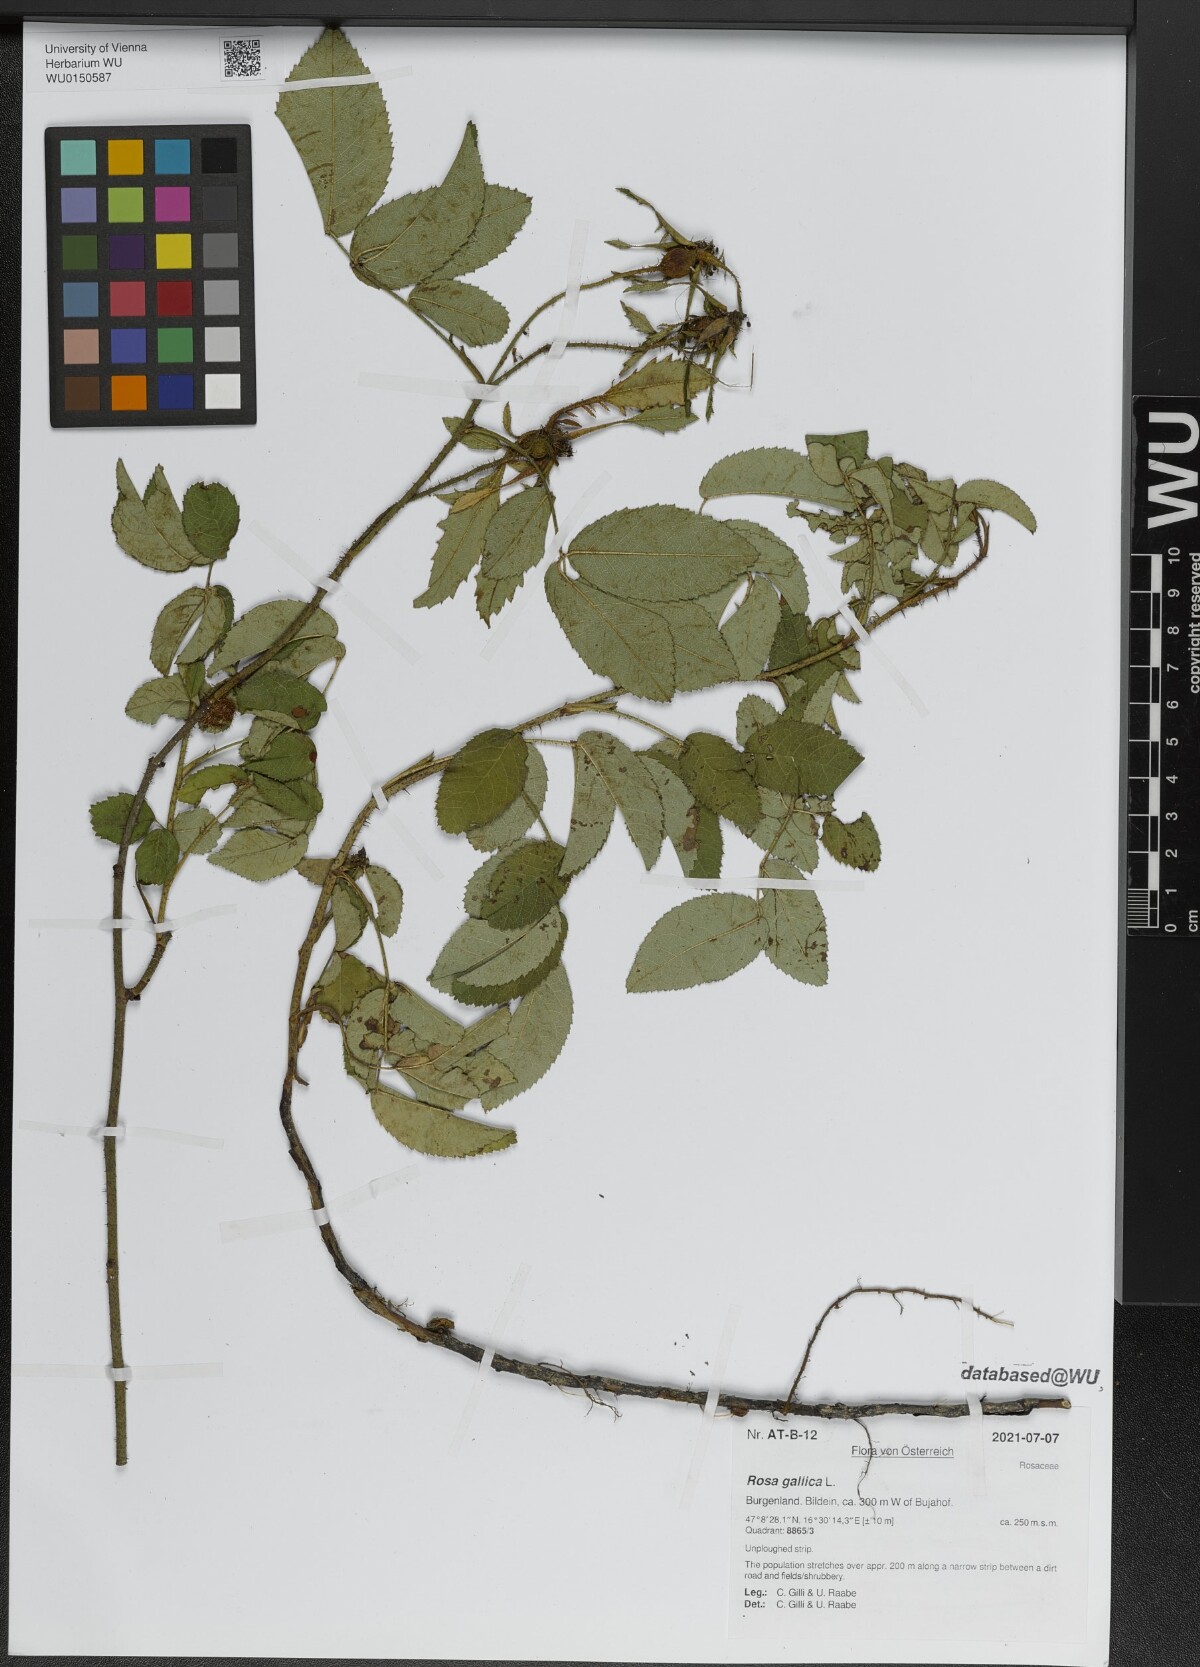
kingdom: Plantae
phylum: Tracheophyta
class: Magnoliopsida
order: Rosales
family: Rosaceae
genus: Rosa
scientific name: Rosa gallica
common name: French rose
